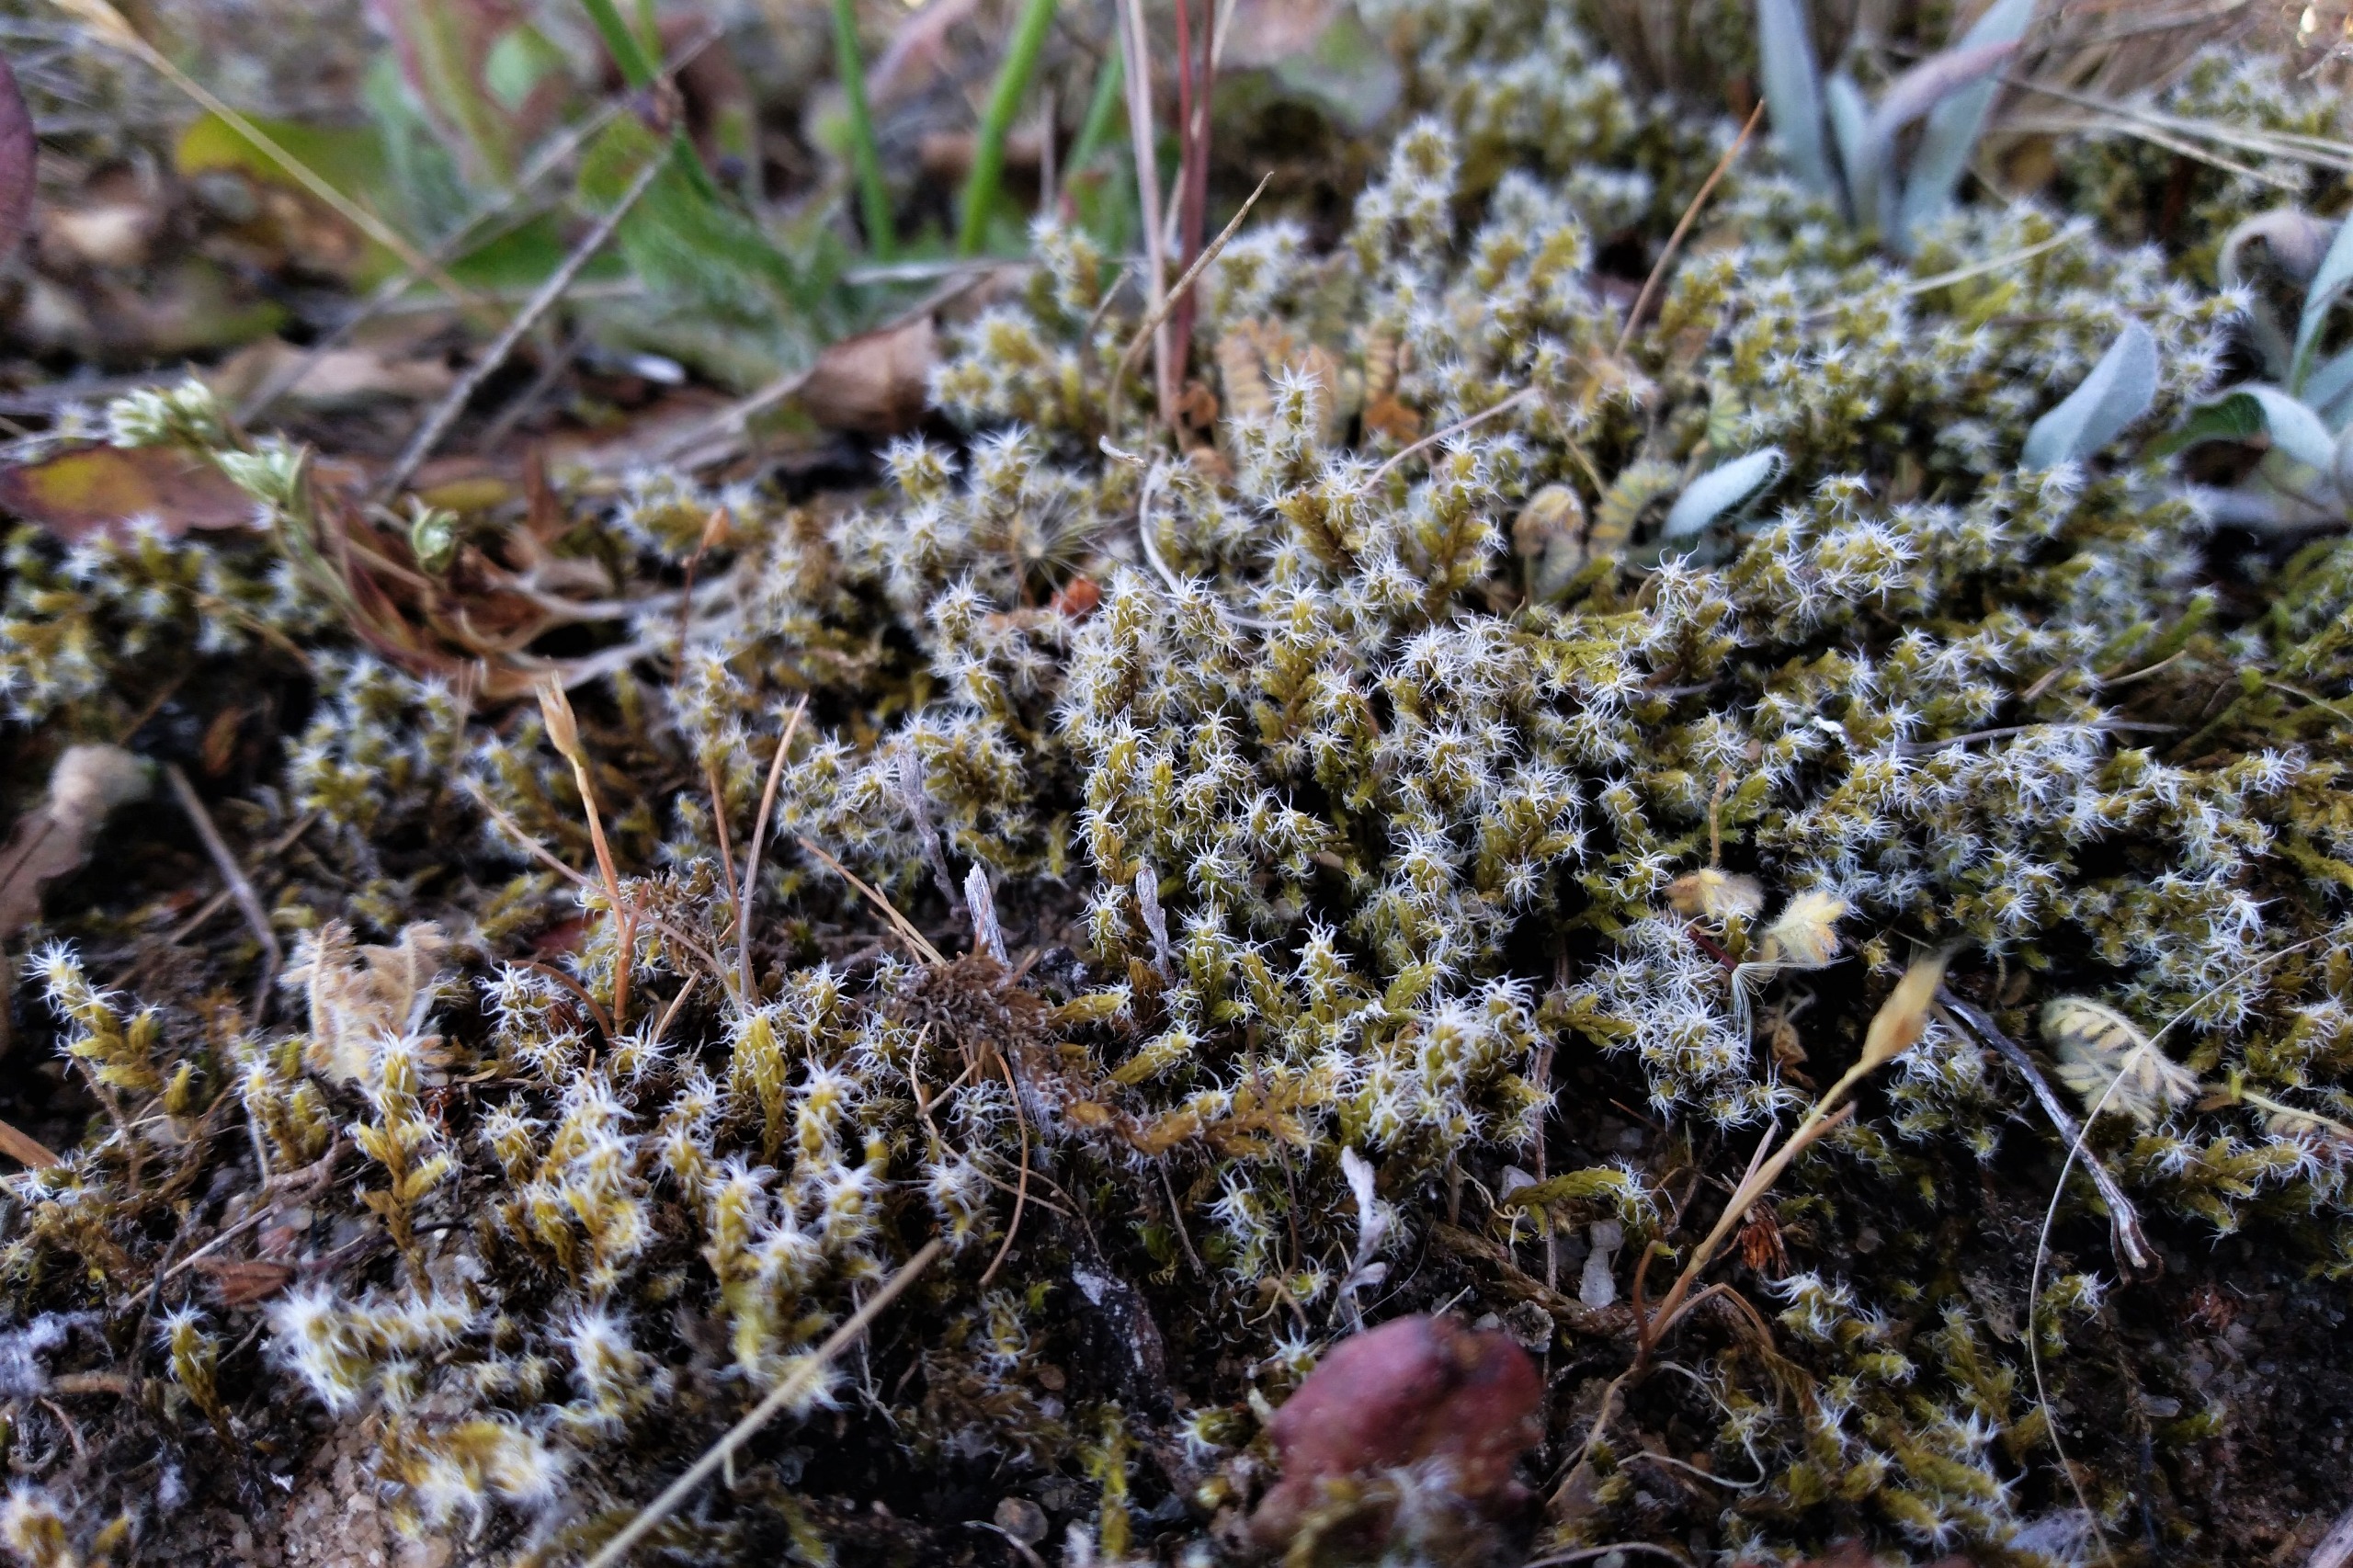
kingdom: Plantae
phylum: Bryophyta
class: Bryopsida
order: Grimmiales
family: Grimmiaceae
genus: Niphotrichum
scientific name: Niphotrichum elongatum
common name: Lang børstemos
